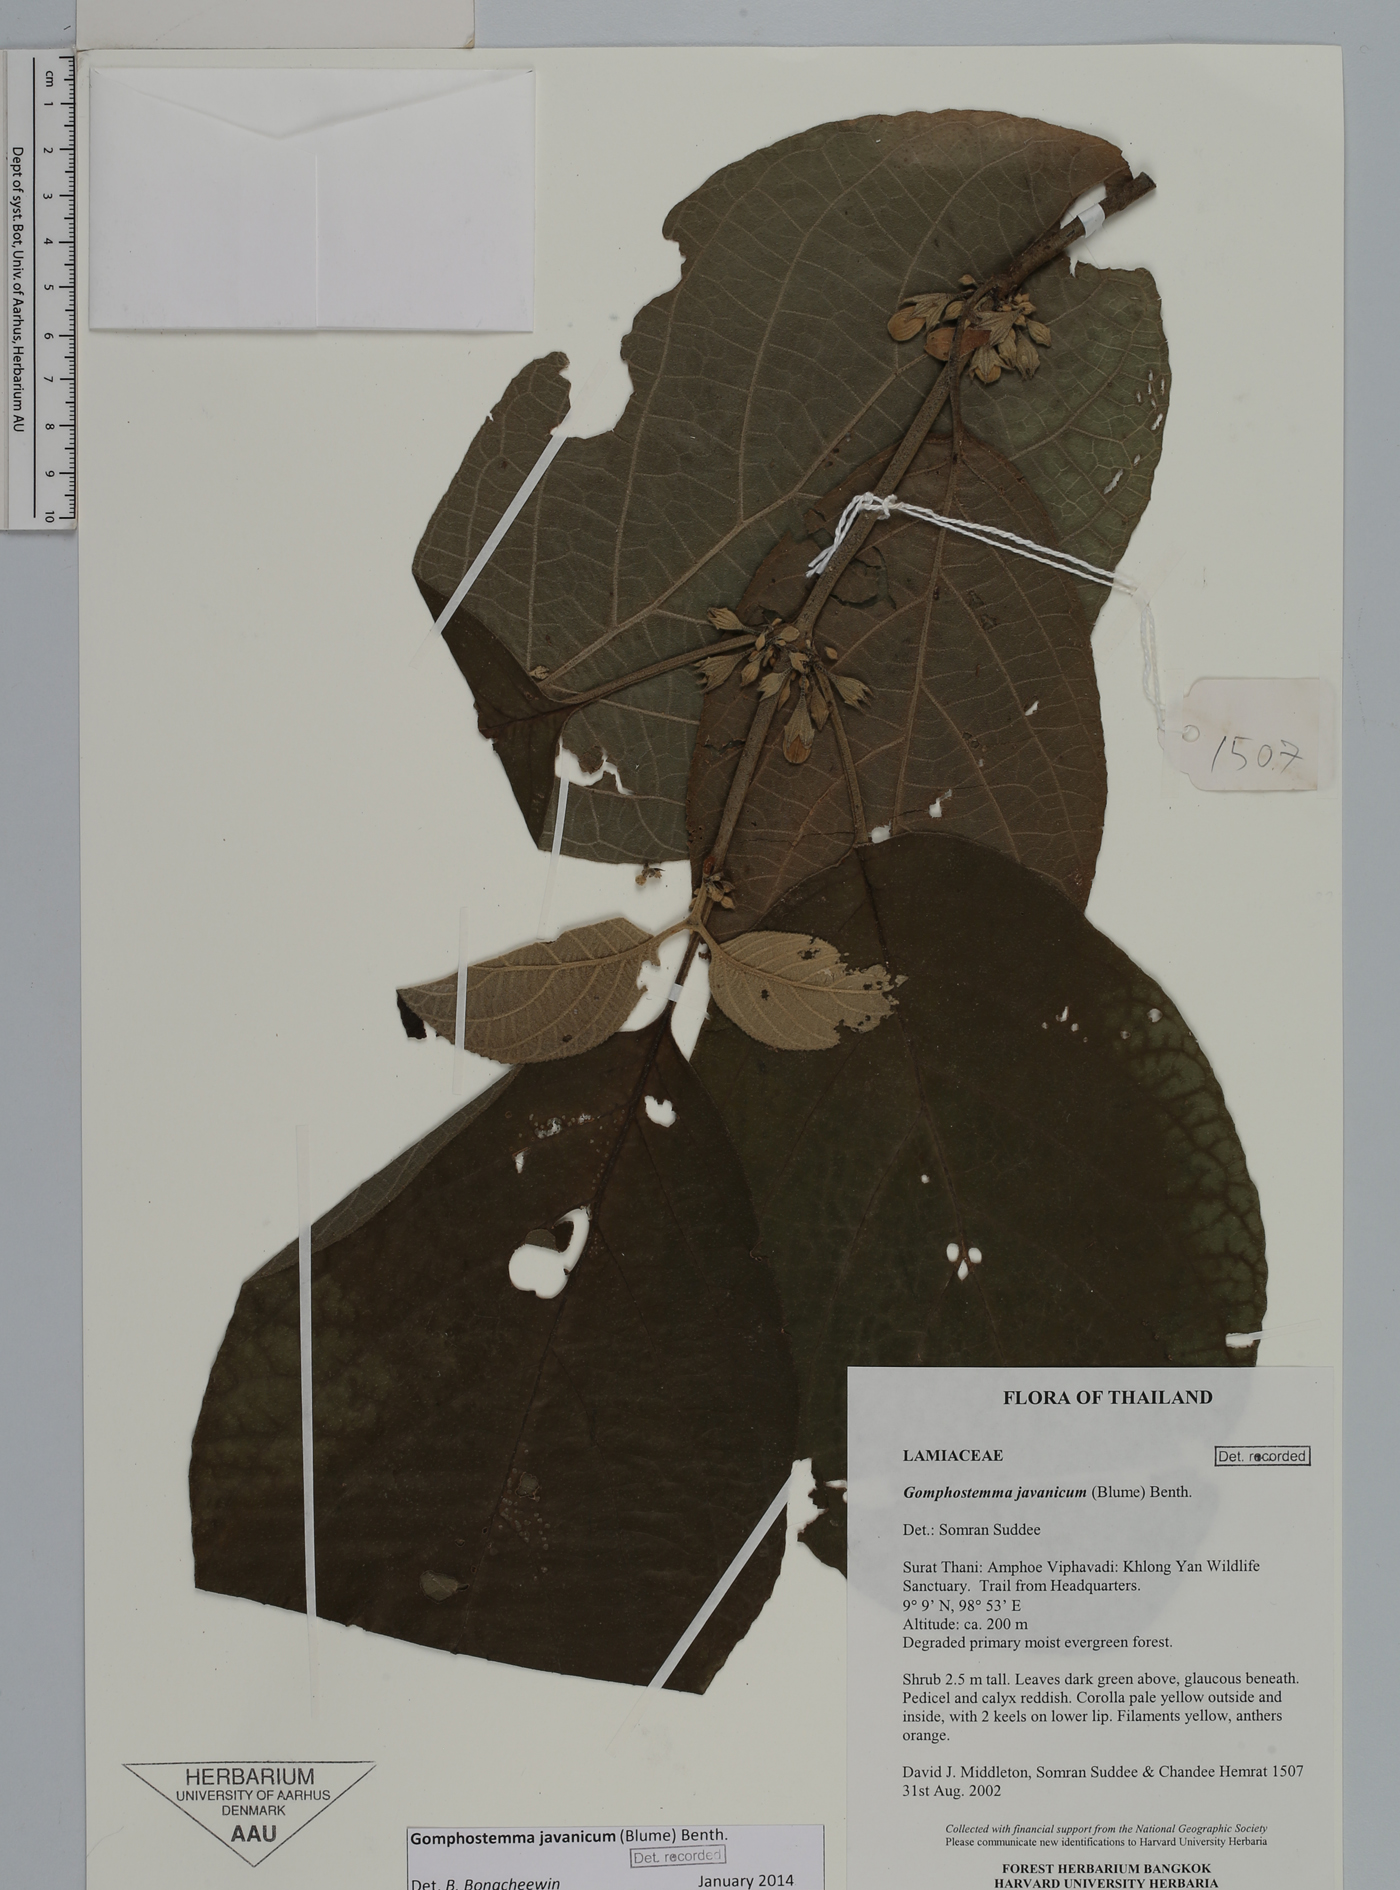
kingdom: Plantae
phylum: Tracheophyta
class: Magnoliopsida
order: Lamiales
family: Lamiaceae
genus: Gomphostemma
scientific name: Gomphostemma javanicum
